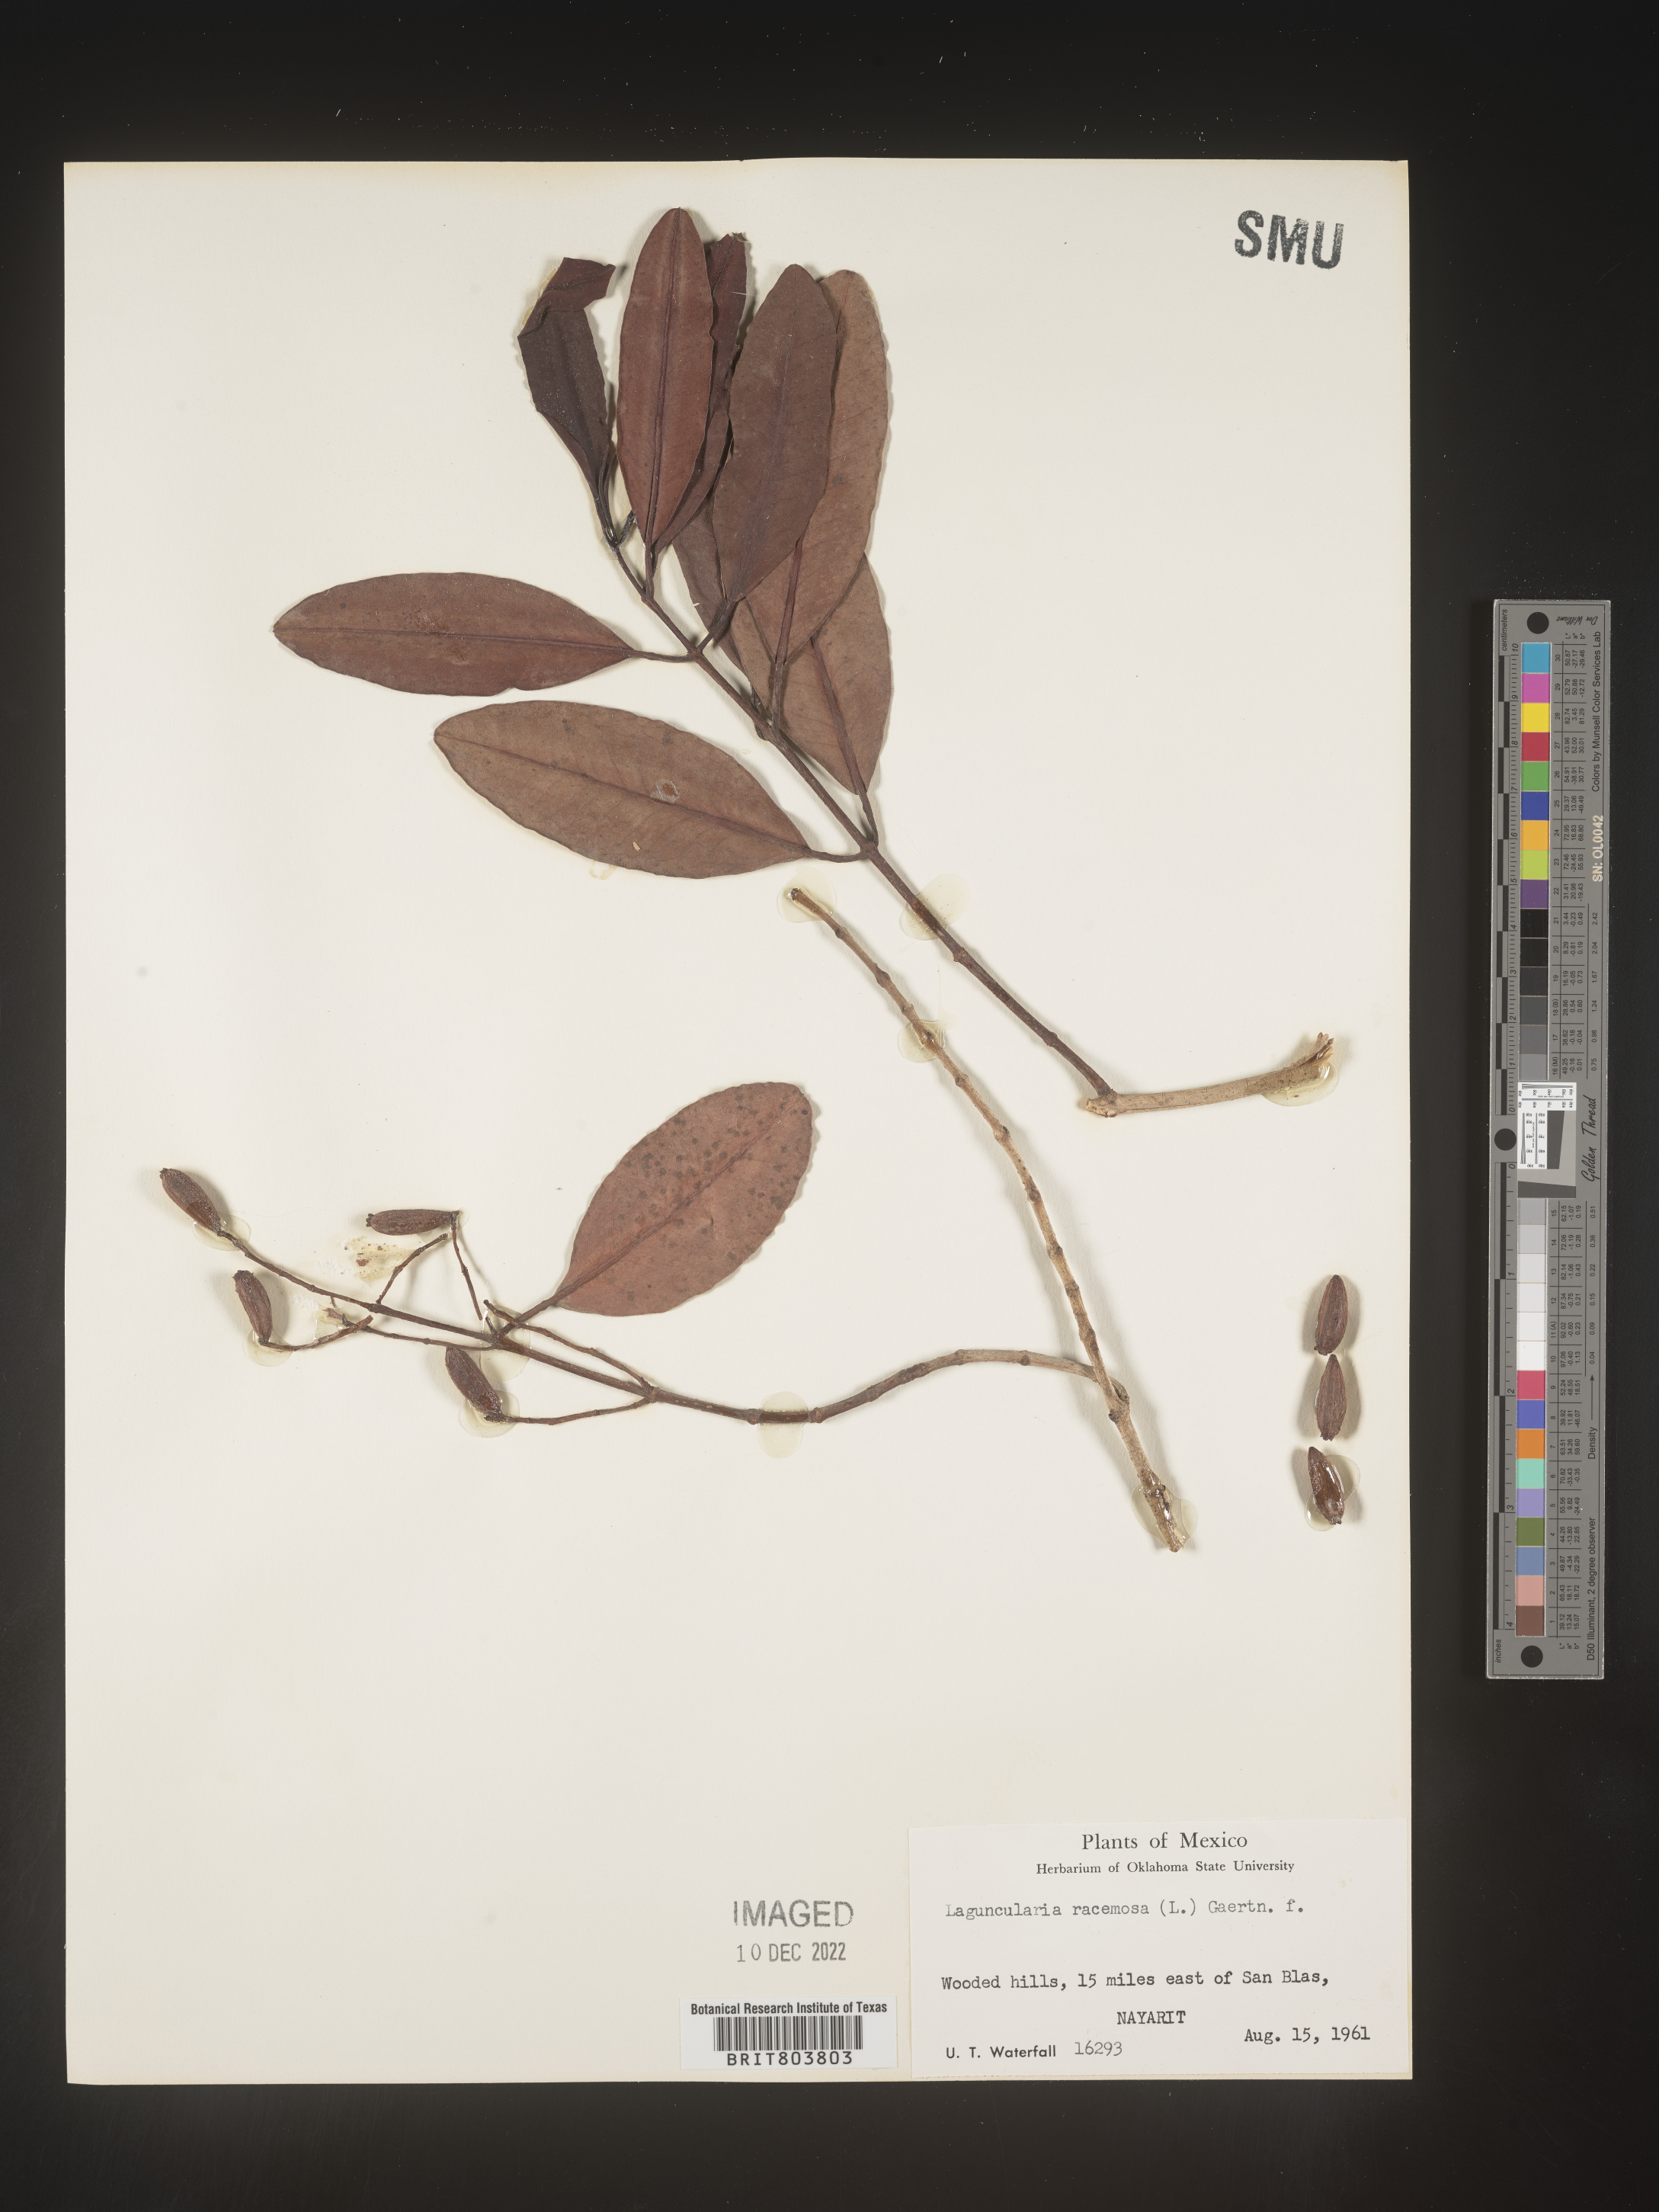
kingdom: Plantae
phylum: Tracheophyta
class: Magnoliopsida
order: Myrtales
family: Combretaceae
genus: Laguncularia
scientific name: Laguncularia
